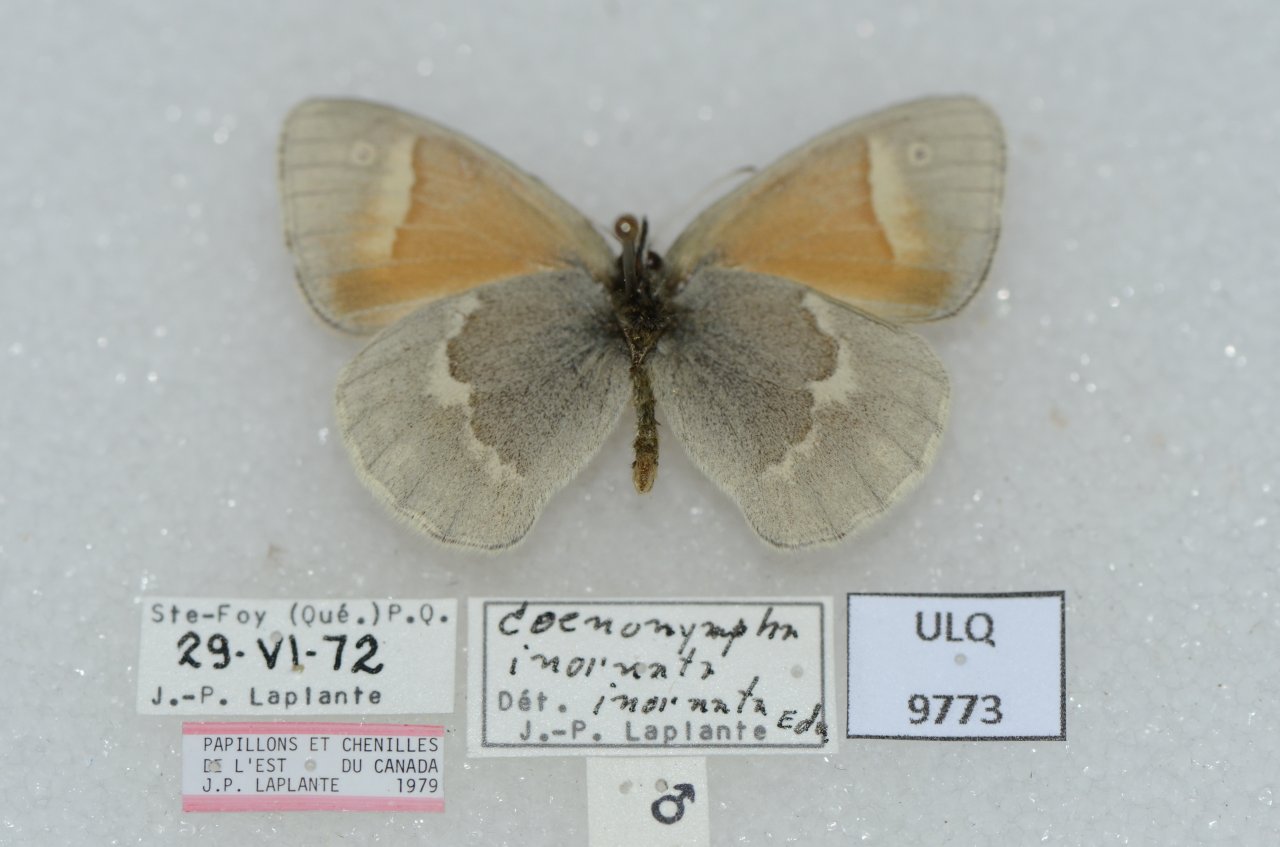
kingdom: Animalia
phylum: Arthropoda
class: Insecta
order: Lepidoptera
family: Nymphalidae
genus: Coenonympha
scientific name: Coenonympha tullia
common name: Large Heath
